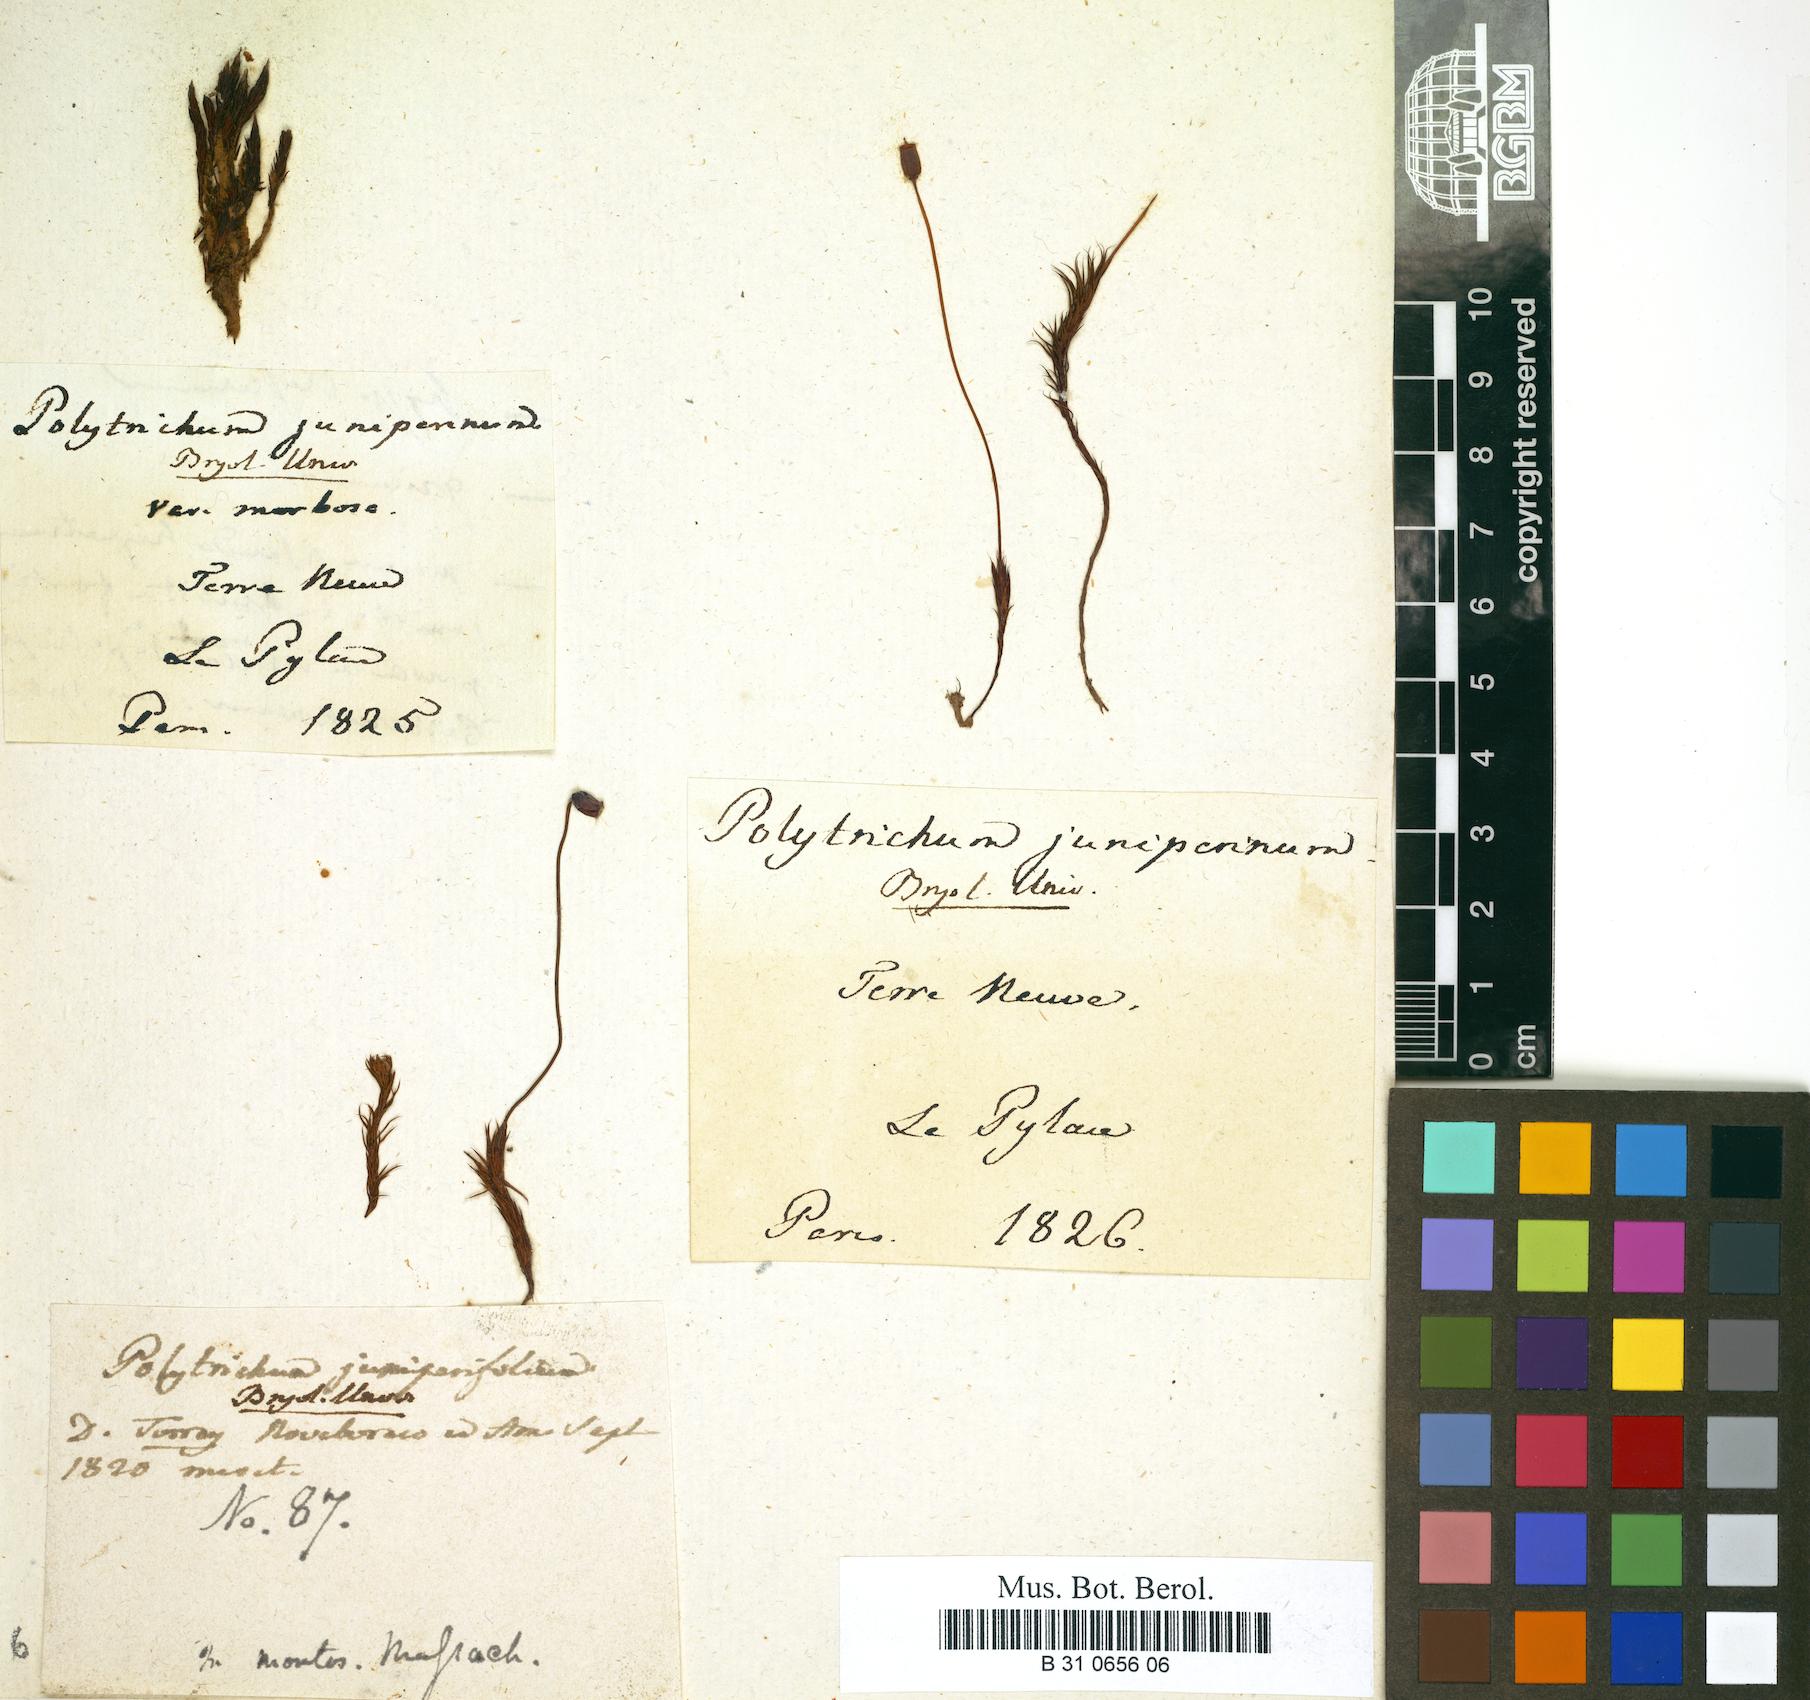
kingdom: Plantae
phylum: Bryophyta
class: Polytrichopsida
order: Polytrichales
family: Polytrichaceae
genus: Polytrichum
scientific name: Polytrichum juniperinum
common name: Juniper haircap moss
